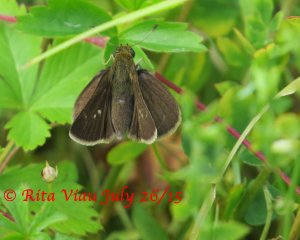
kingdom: Animalia
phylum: Arthropoda
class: Insecta
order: Lepidoptera
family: Hesperiidae
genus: Euphyes
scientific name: Euphyes vestris
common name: Dun Skipper
